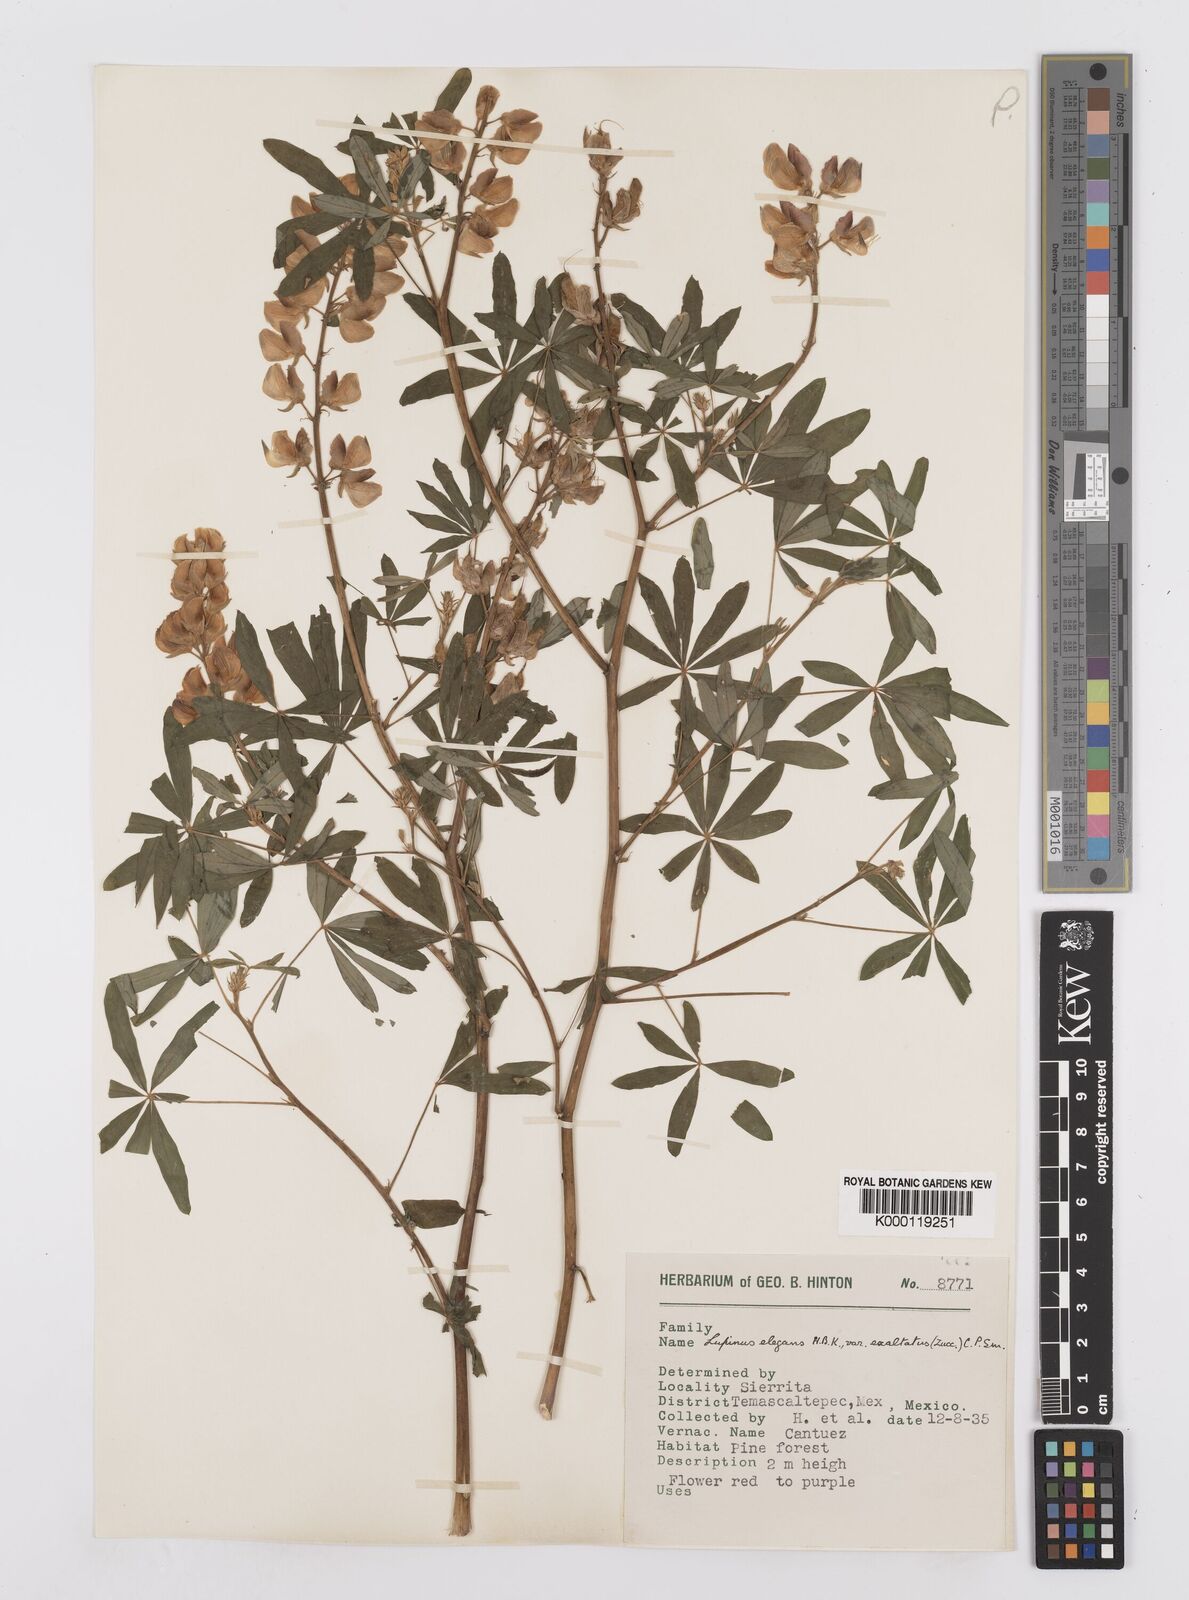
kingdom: Plantae
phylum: Tracheophyta
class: Magnoliopsida
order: Fabales
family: Fabaceae
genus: Lupinus
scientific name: Lupinus elegans
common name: Mexican lupine
